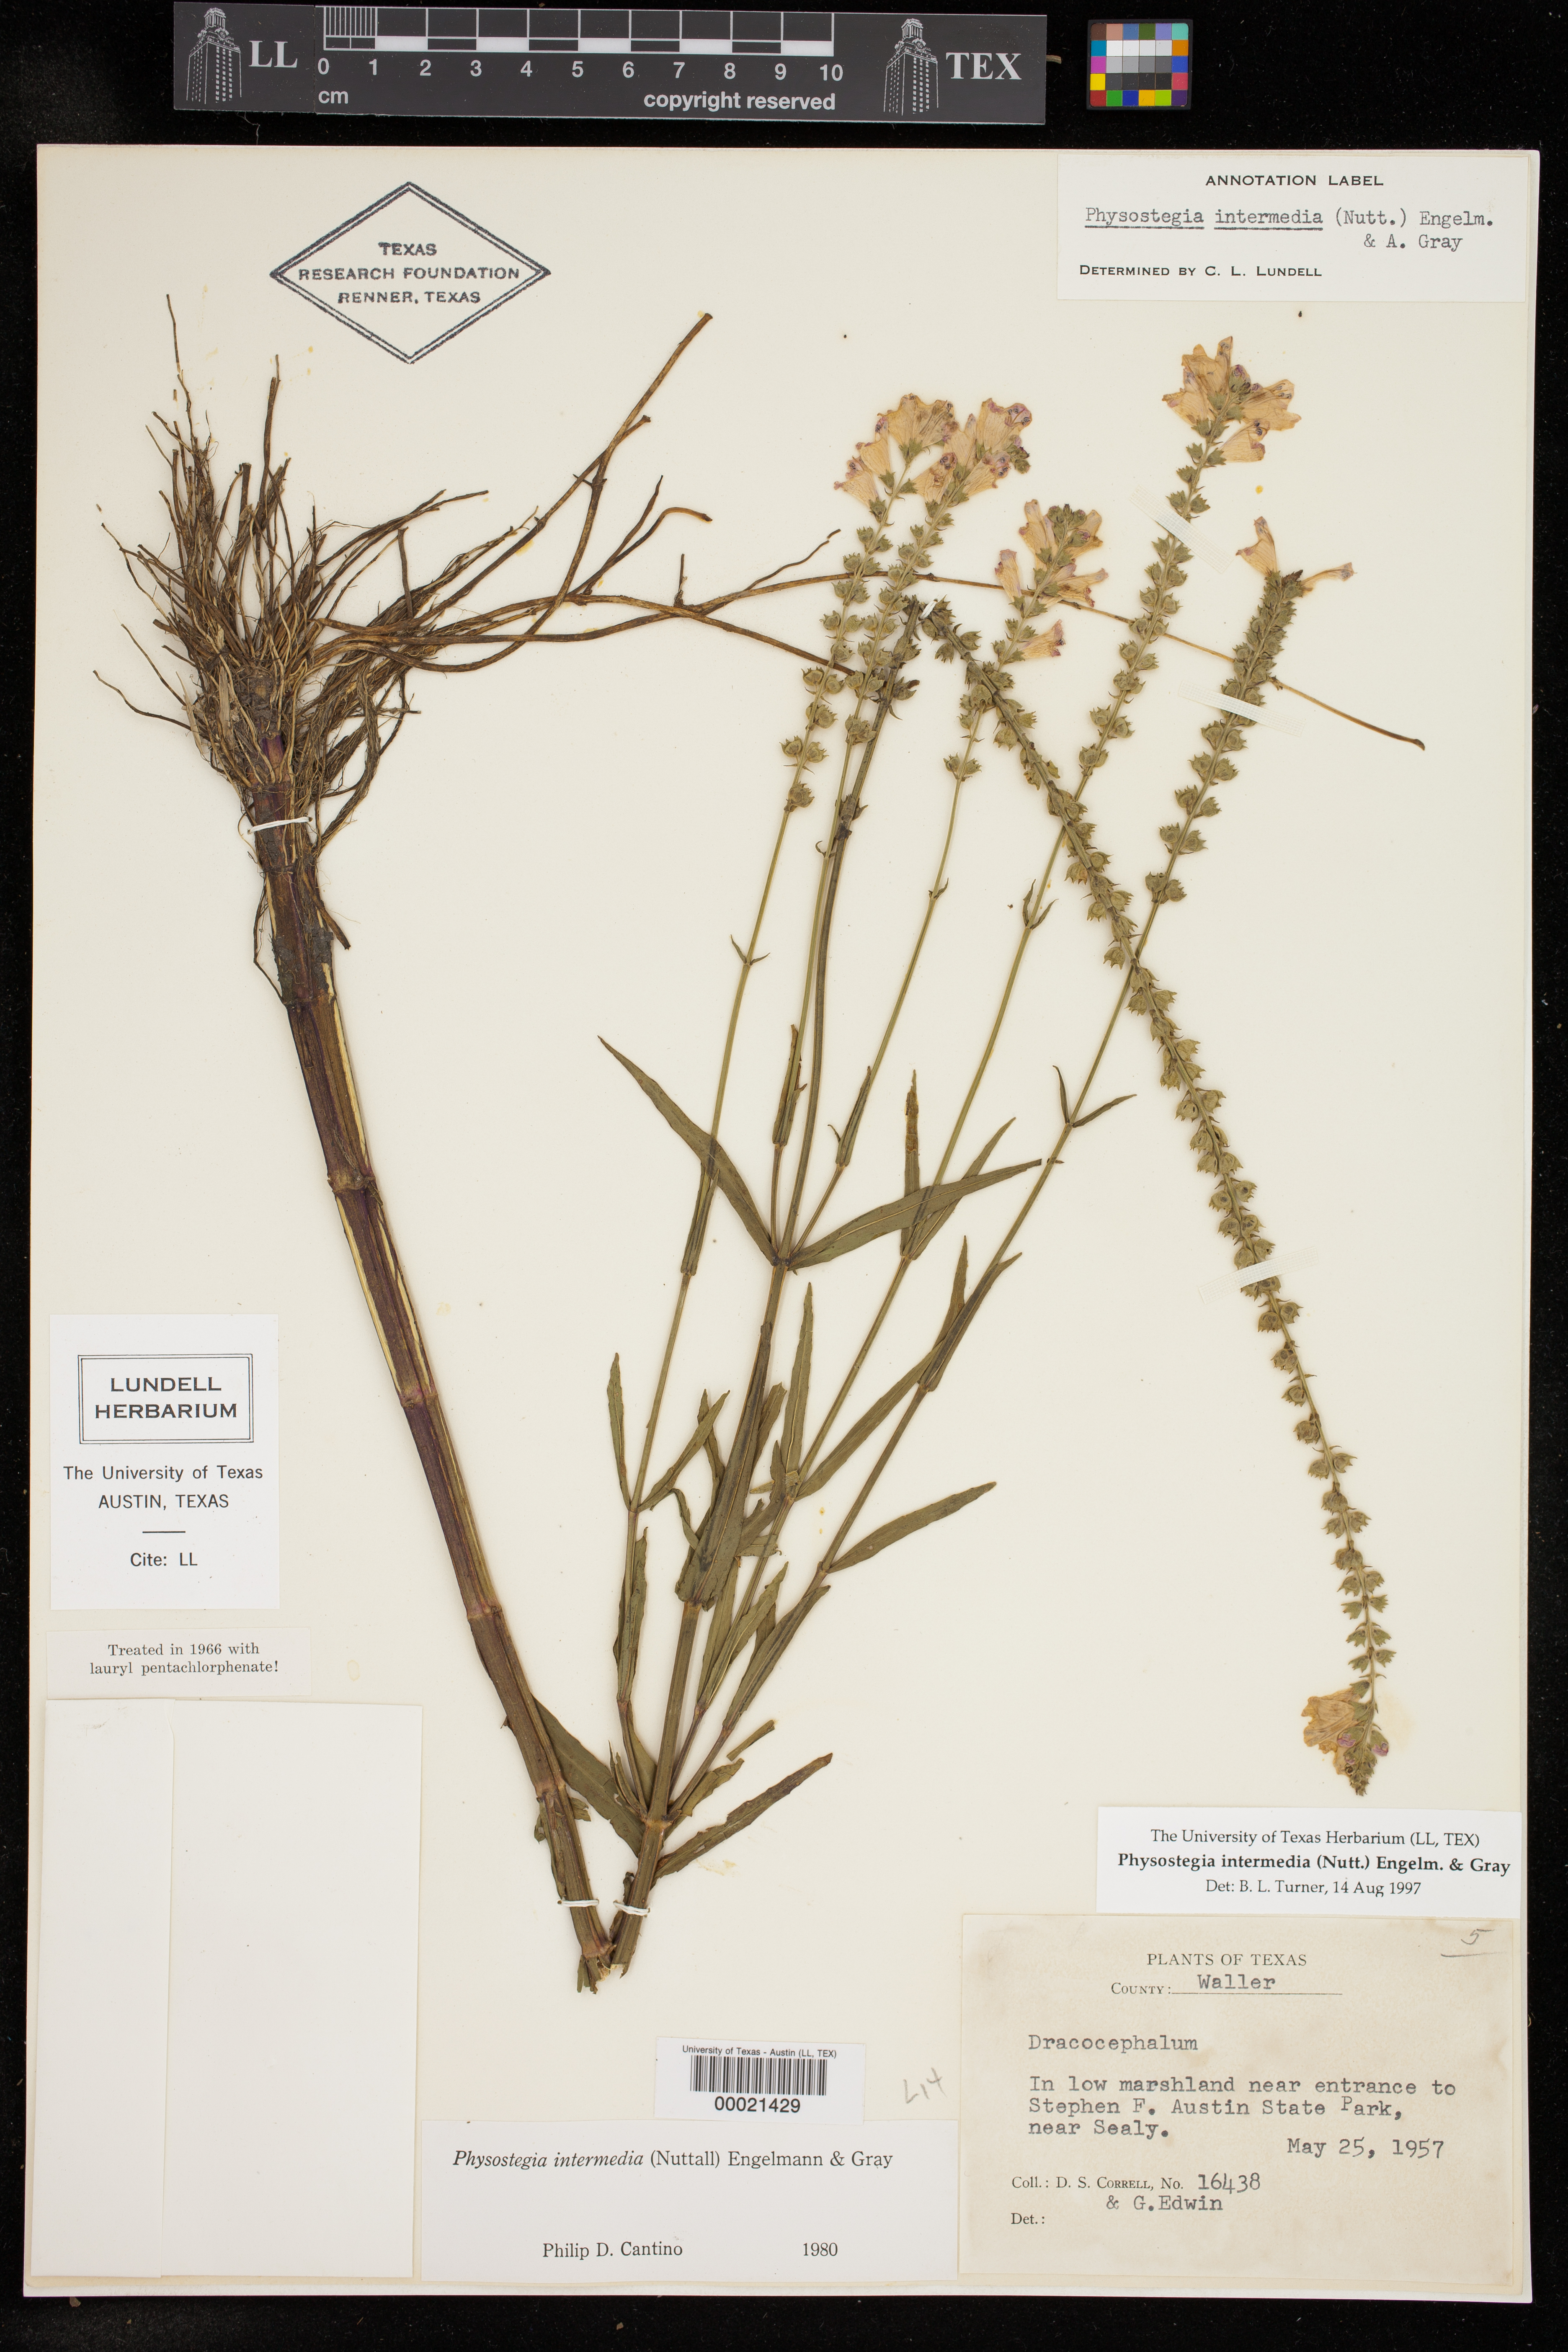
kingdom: Plantae
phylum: Tracheophyta
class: Magnoliopsida
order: Lamiales
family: Lamiaceae
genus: Physostegia
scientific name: Physostegia intermedia
